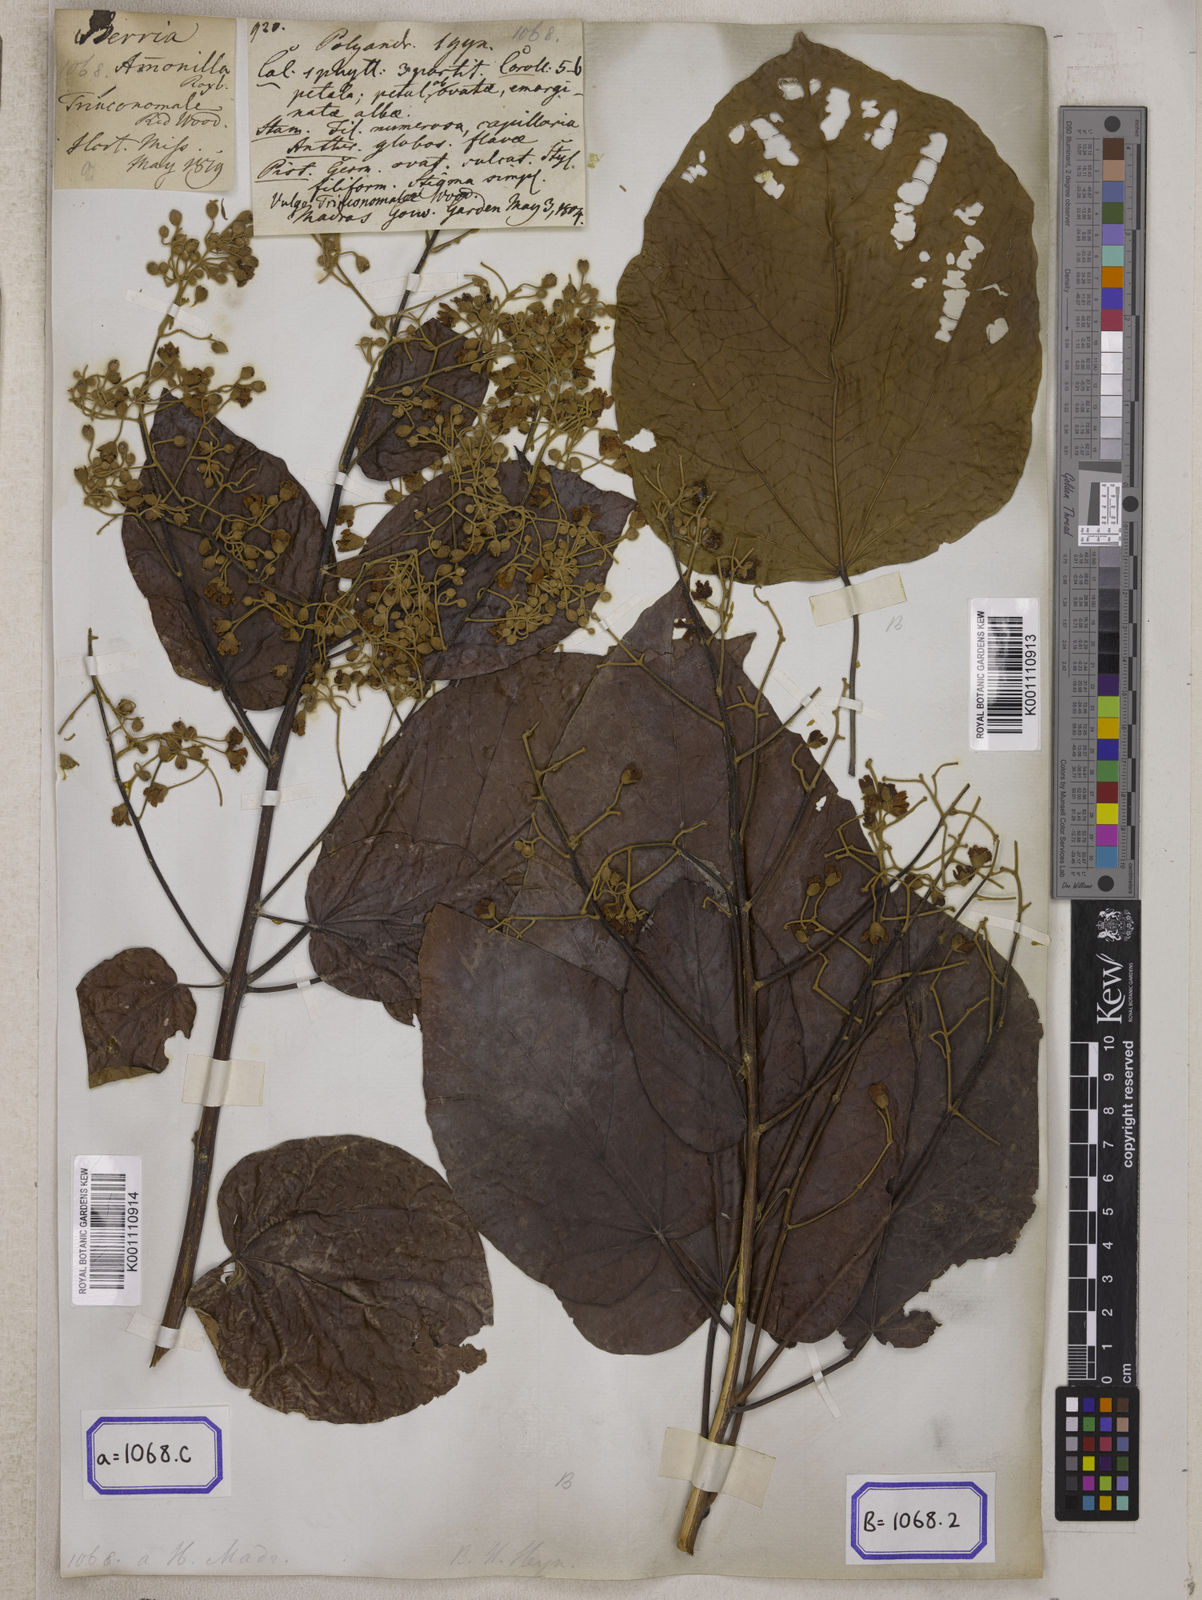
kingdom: Plantae
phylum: Tracheophyta
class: Magnoliopsida
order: Malvales
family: Malvaceae
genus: Berrya
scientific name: Berrya cordifolia
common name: Trincomalee
